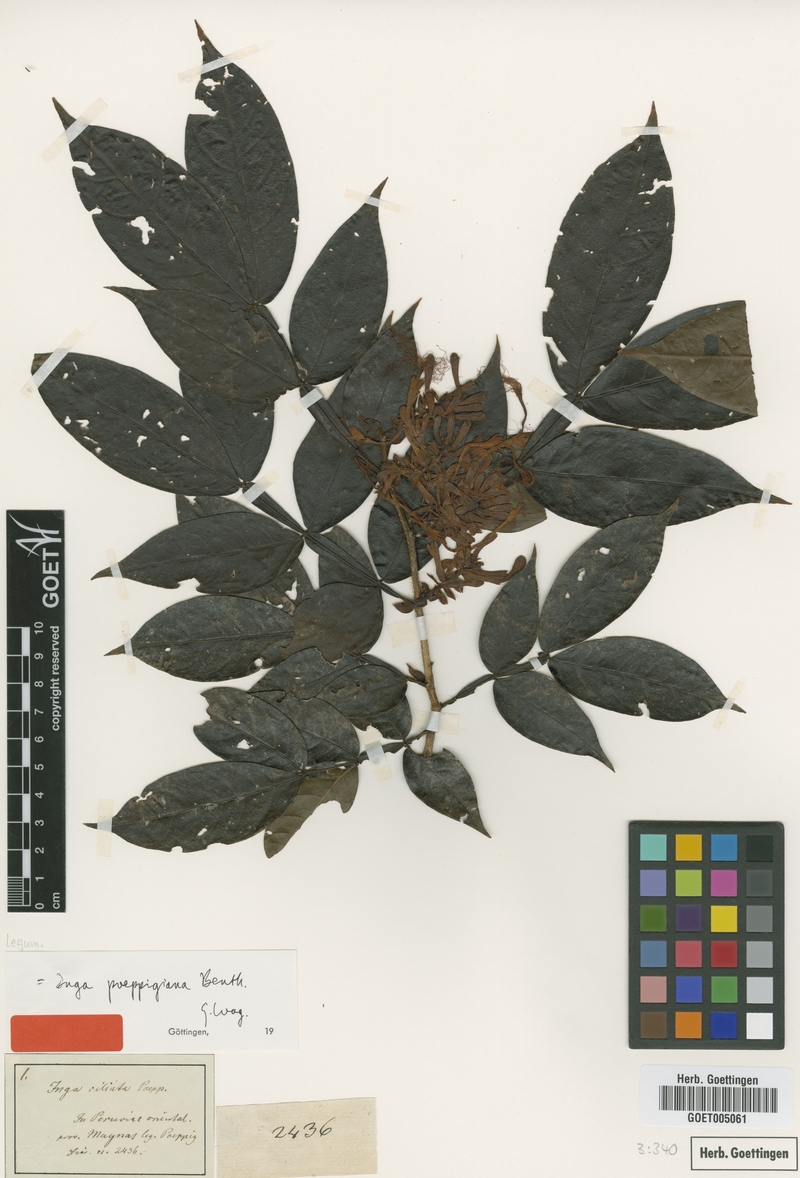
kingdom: Plantae
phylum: Tracheophyta
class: Magnoliopsida
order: Fabales
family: Fabaceae
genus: Inga
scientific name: Inga poeppigiana
